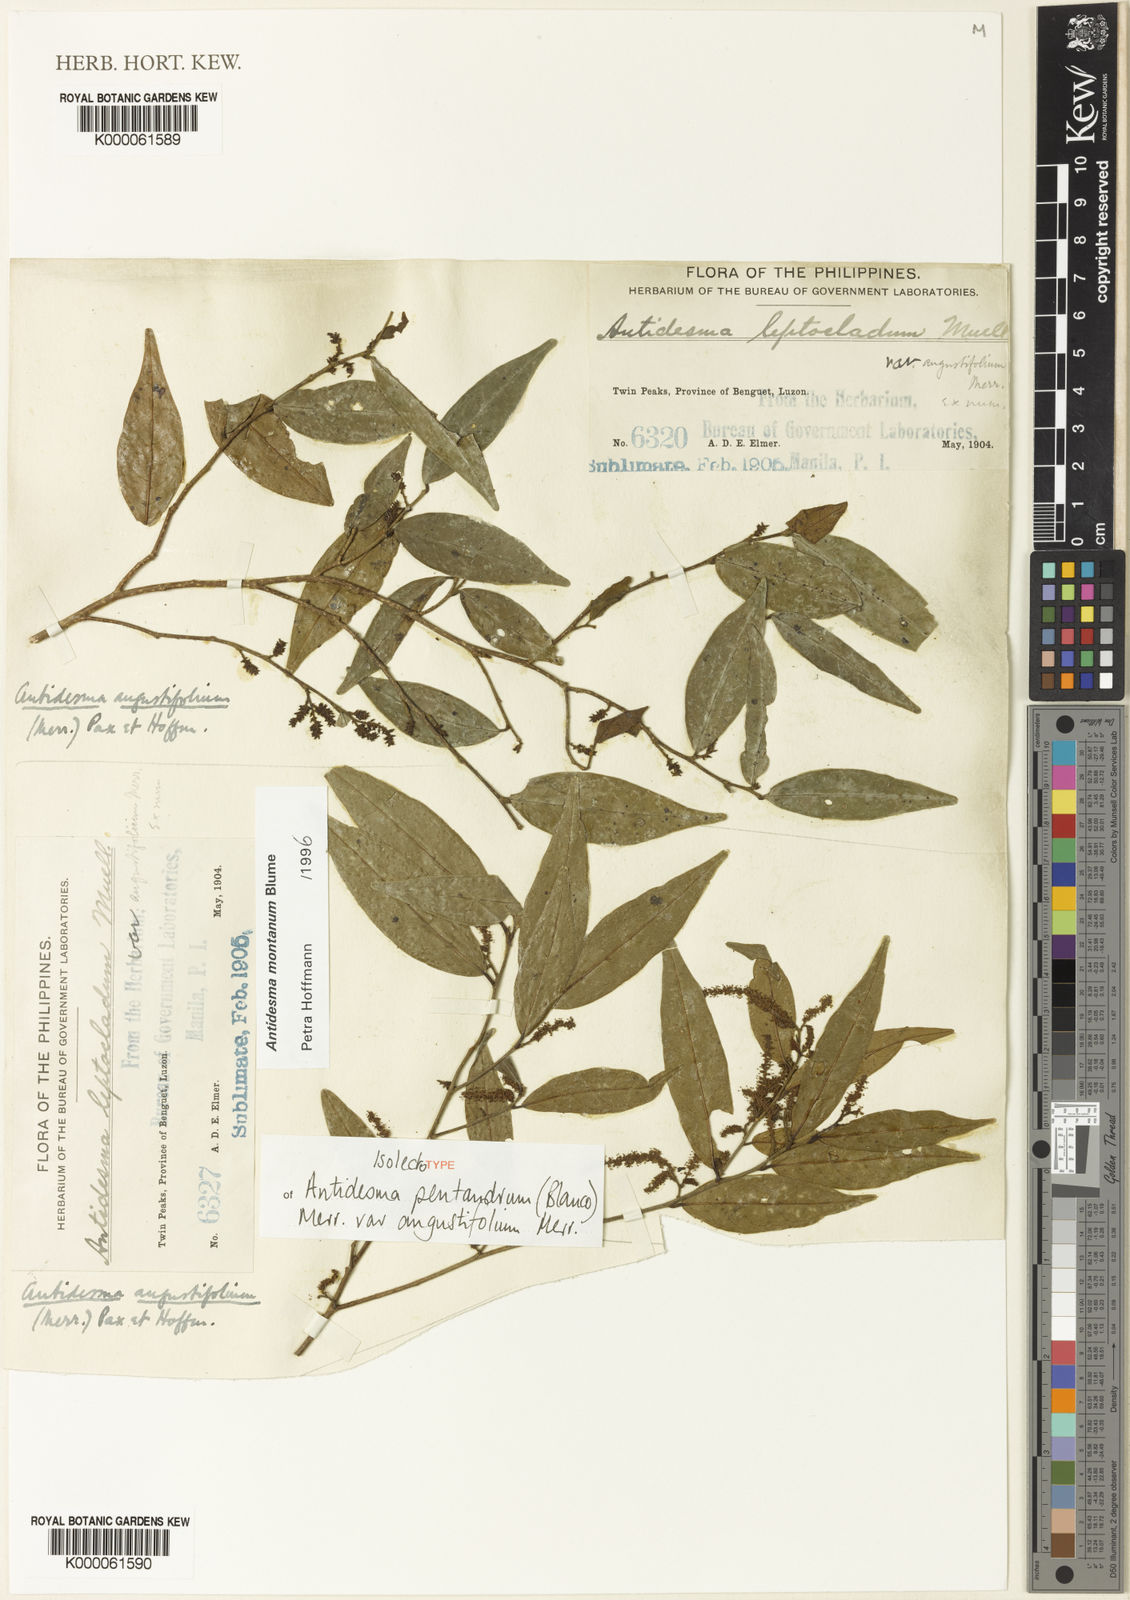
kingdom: Plantae
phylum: Tracheophyta
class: Magnoliopsida
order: Malpighiales
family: Phyllanthaceae
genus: Antidesma
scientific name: Antidesma montanum
